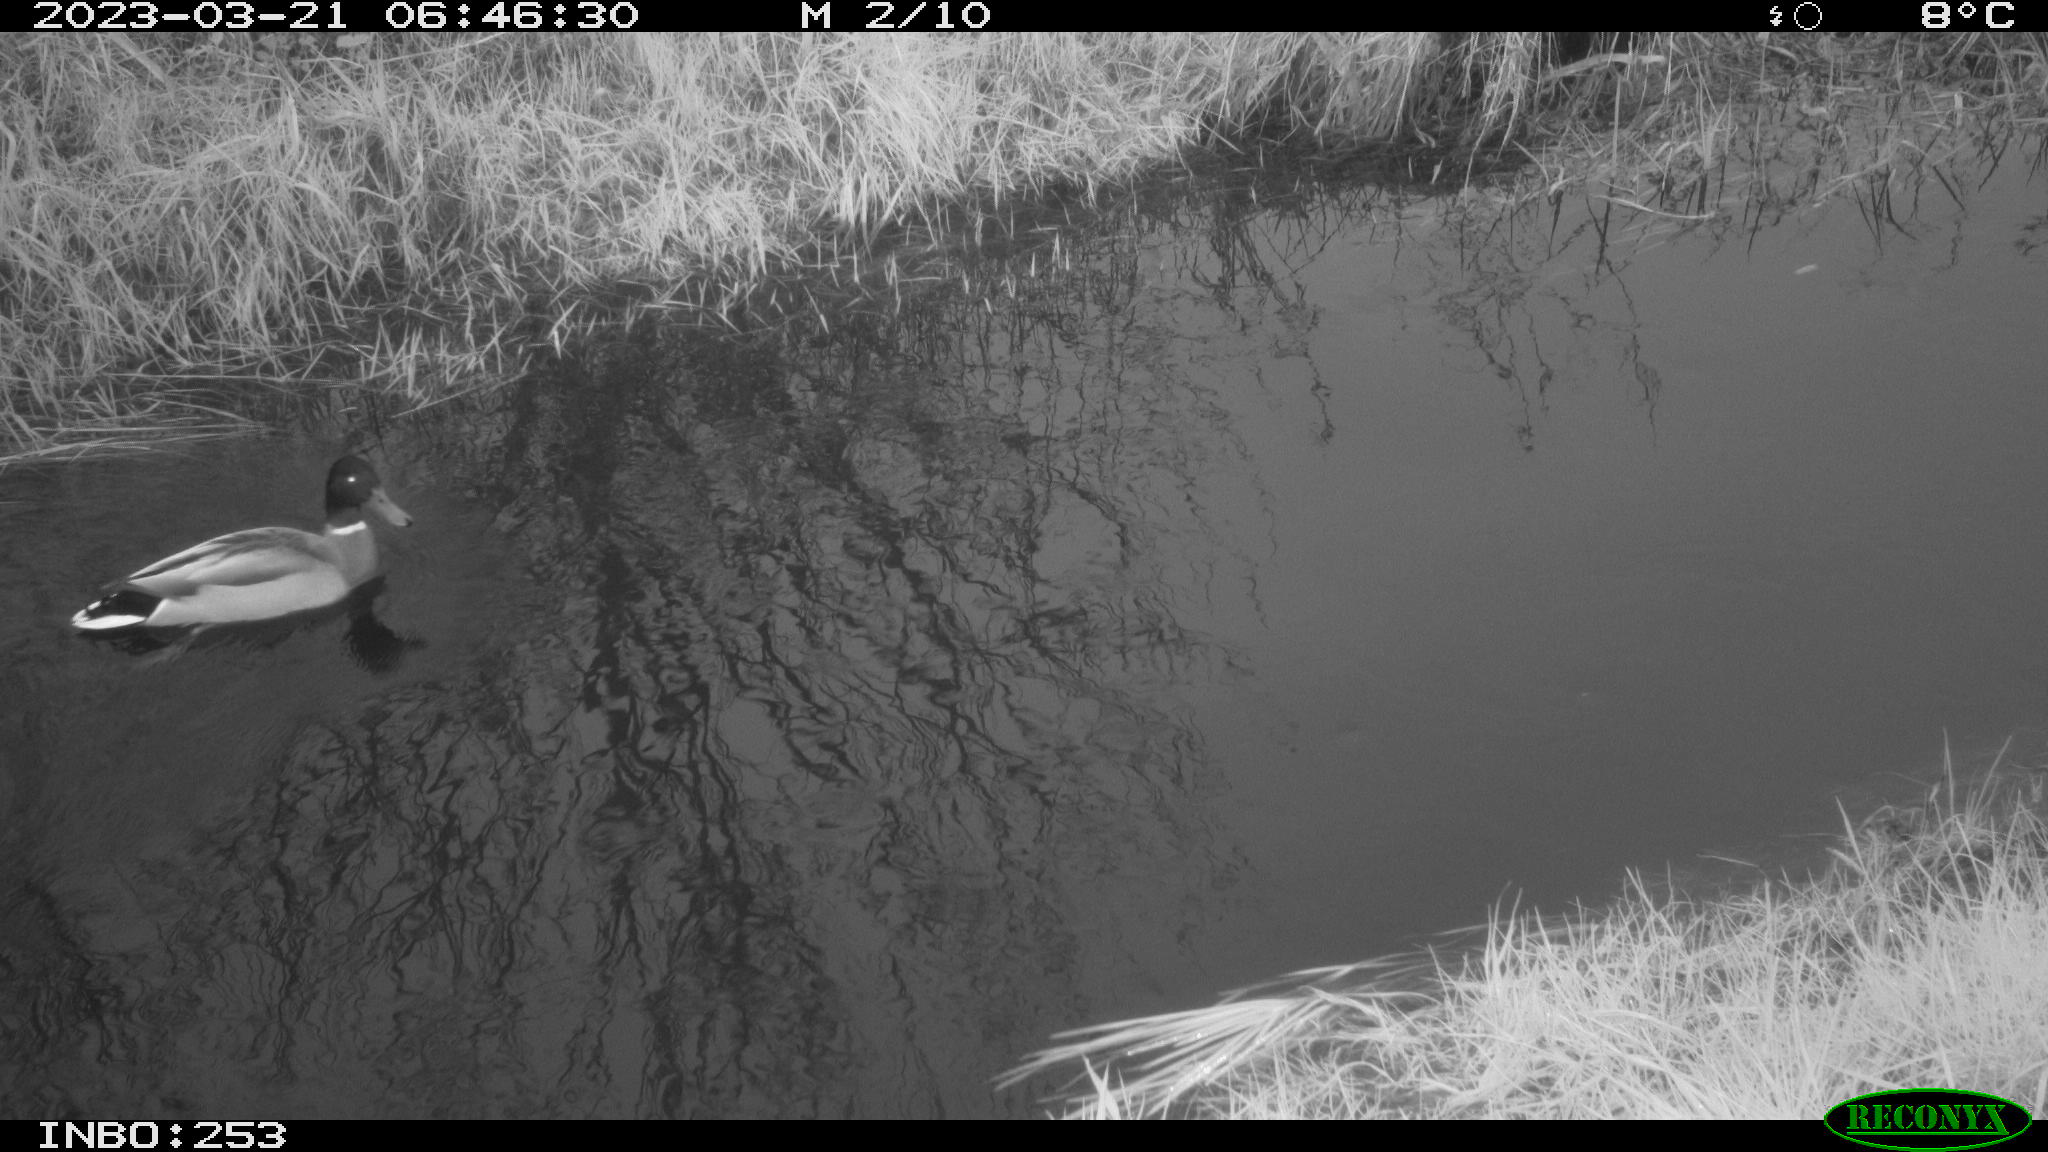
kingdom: Animalia
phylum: Chordata
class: Aves
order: Anseriformes
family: Anatidae
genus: Anas
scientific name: Anas
